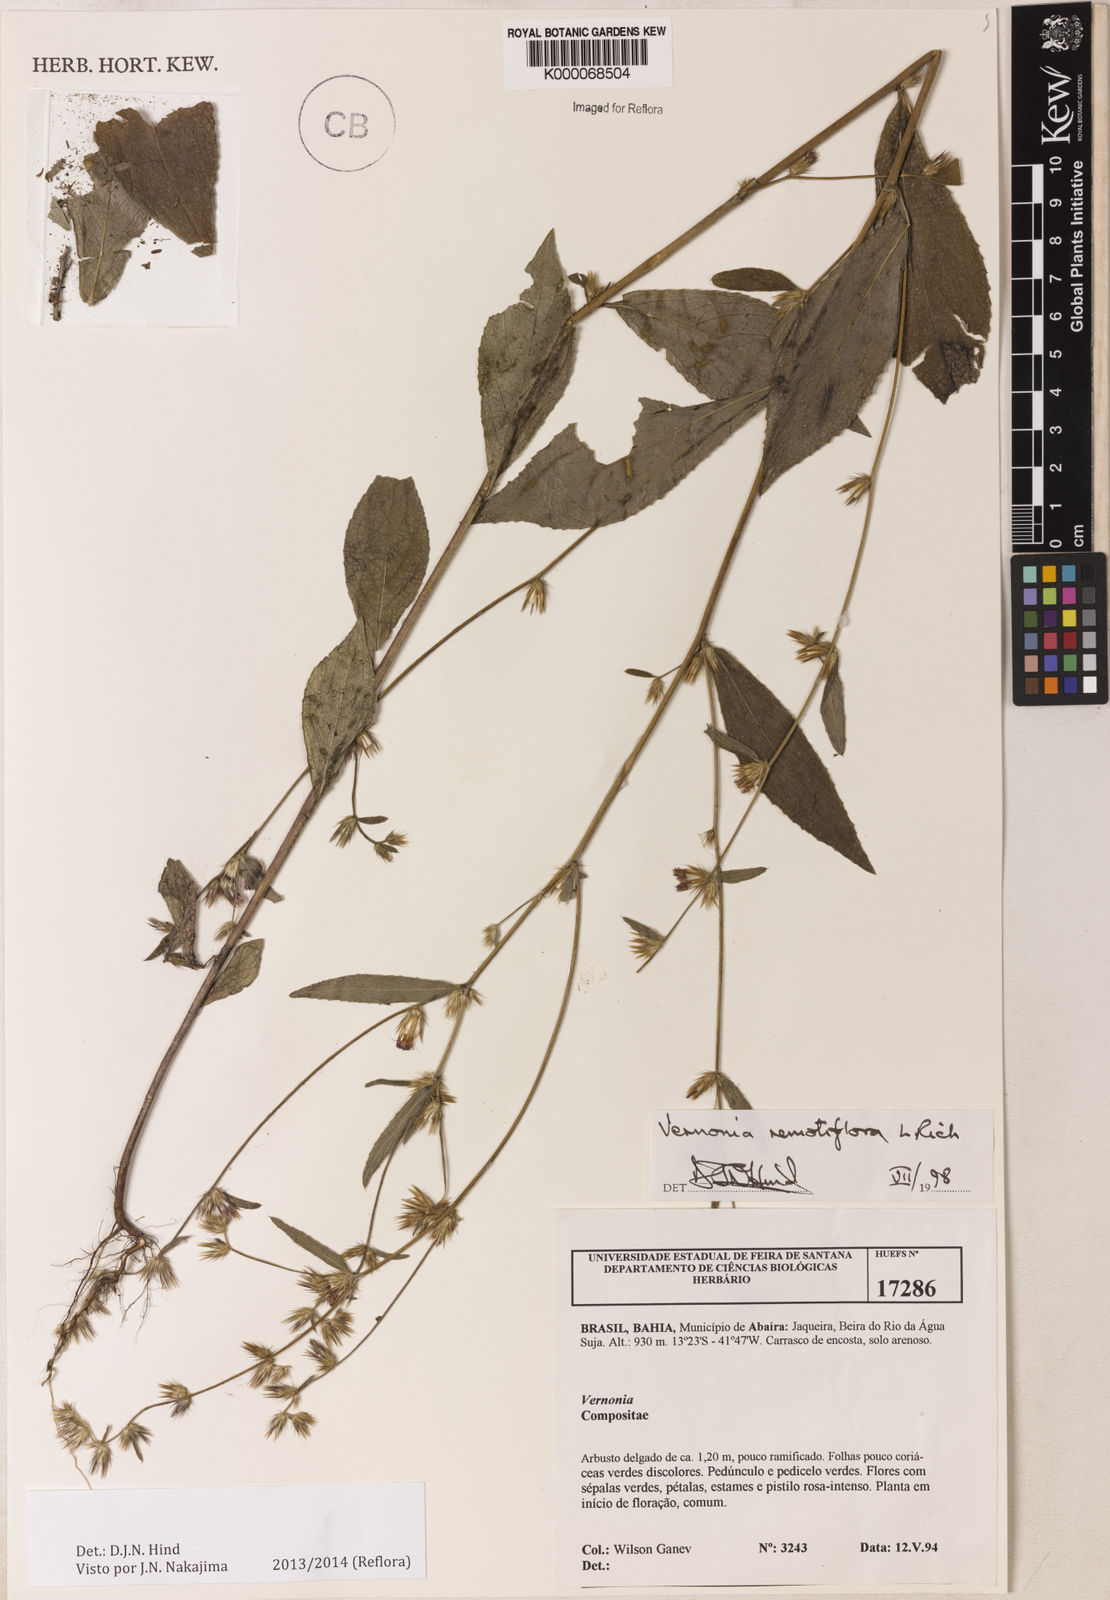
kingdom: Plantae
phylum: Tracheophyta
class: Magnoliopsida
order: Asterales
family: Asteraceae
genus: Lepidaploa
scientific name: Lepidaploa remotiflora
